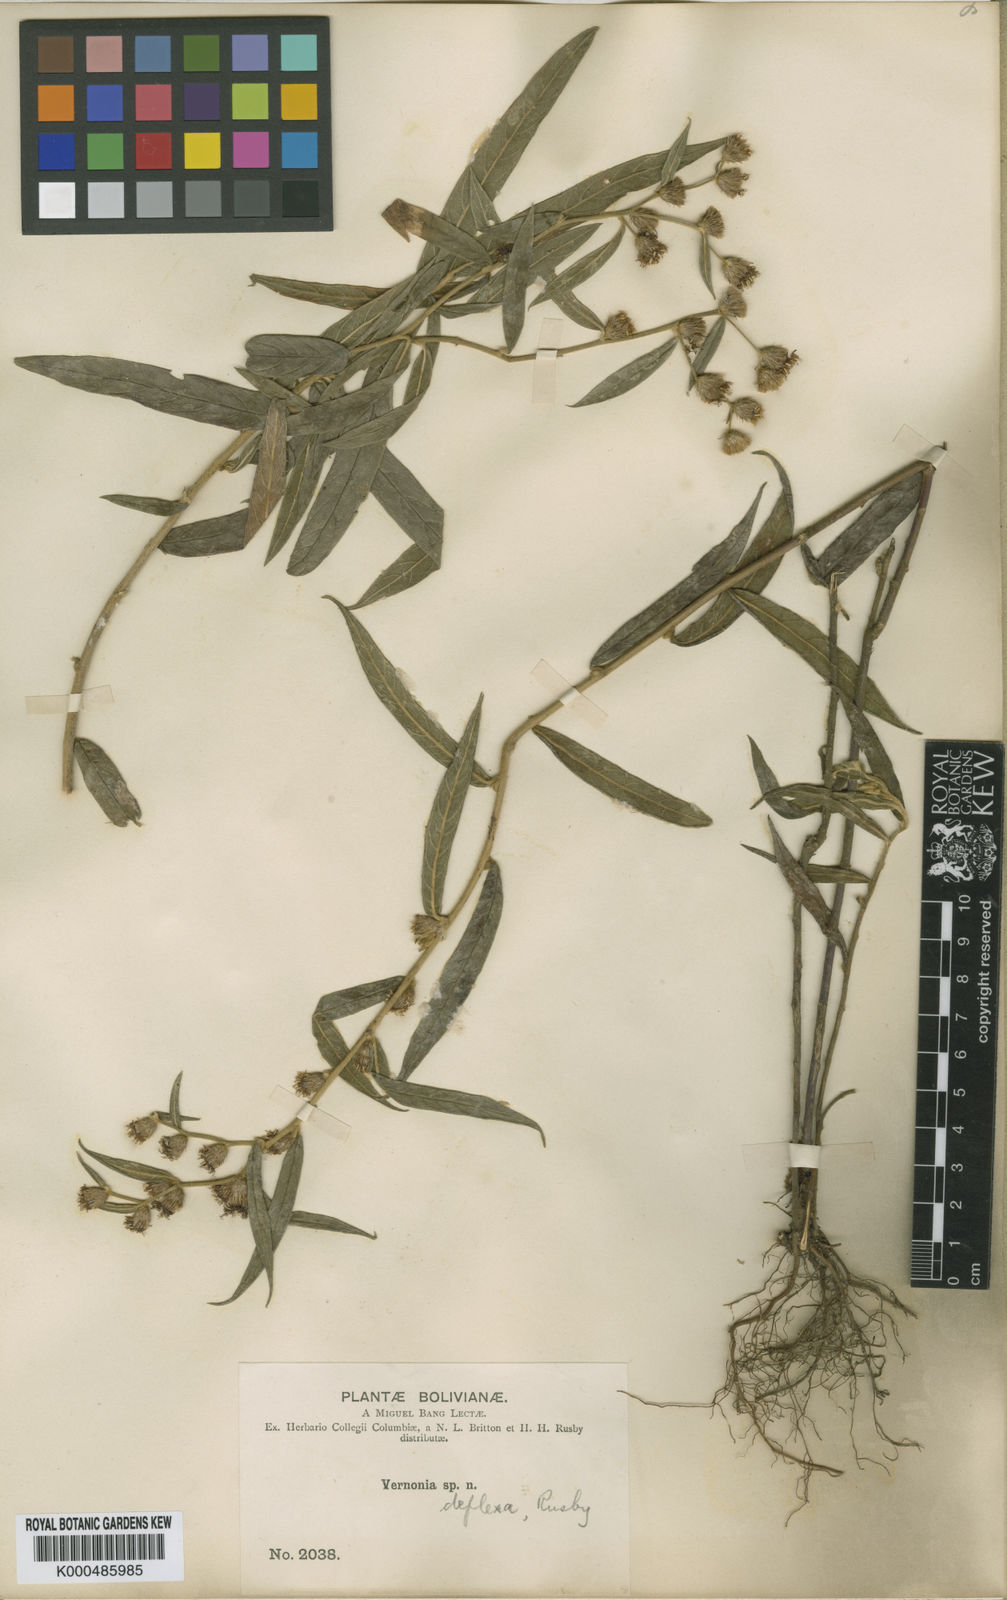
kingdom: Plantae
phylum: Tracheophyta
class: Magnoliopsida
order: Asterales
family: Asteraceae
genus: Lepidaploa
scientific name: Lepidaploa deflexa
